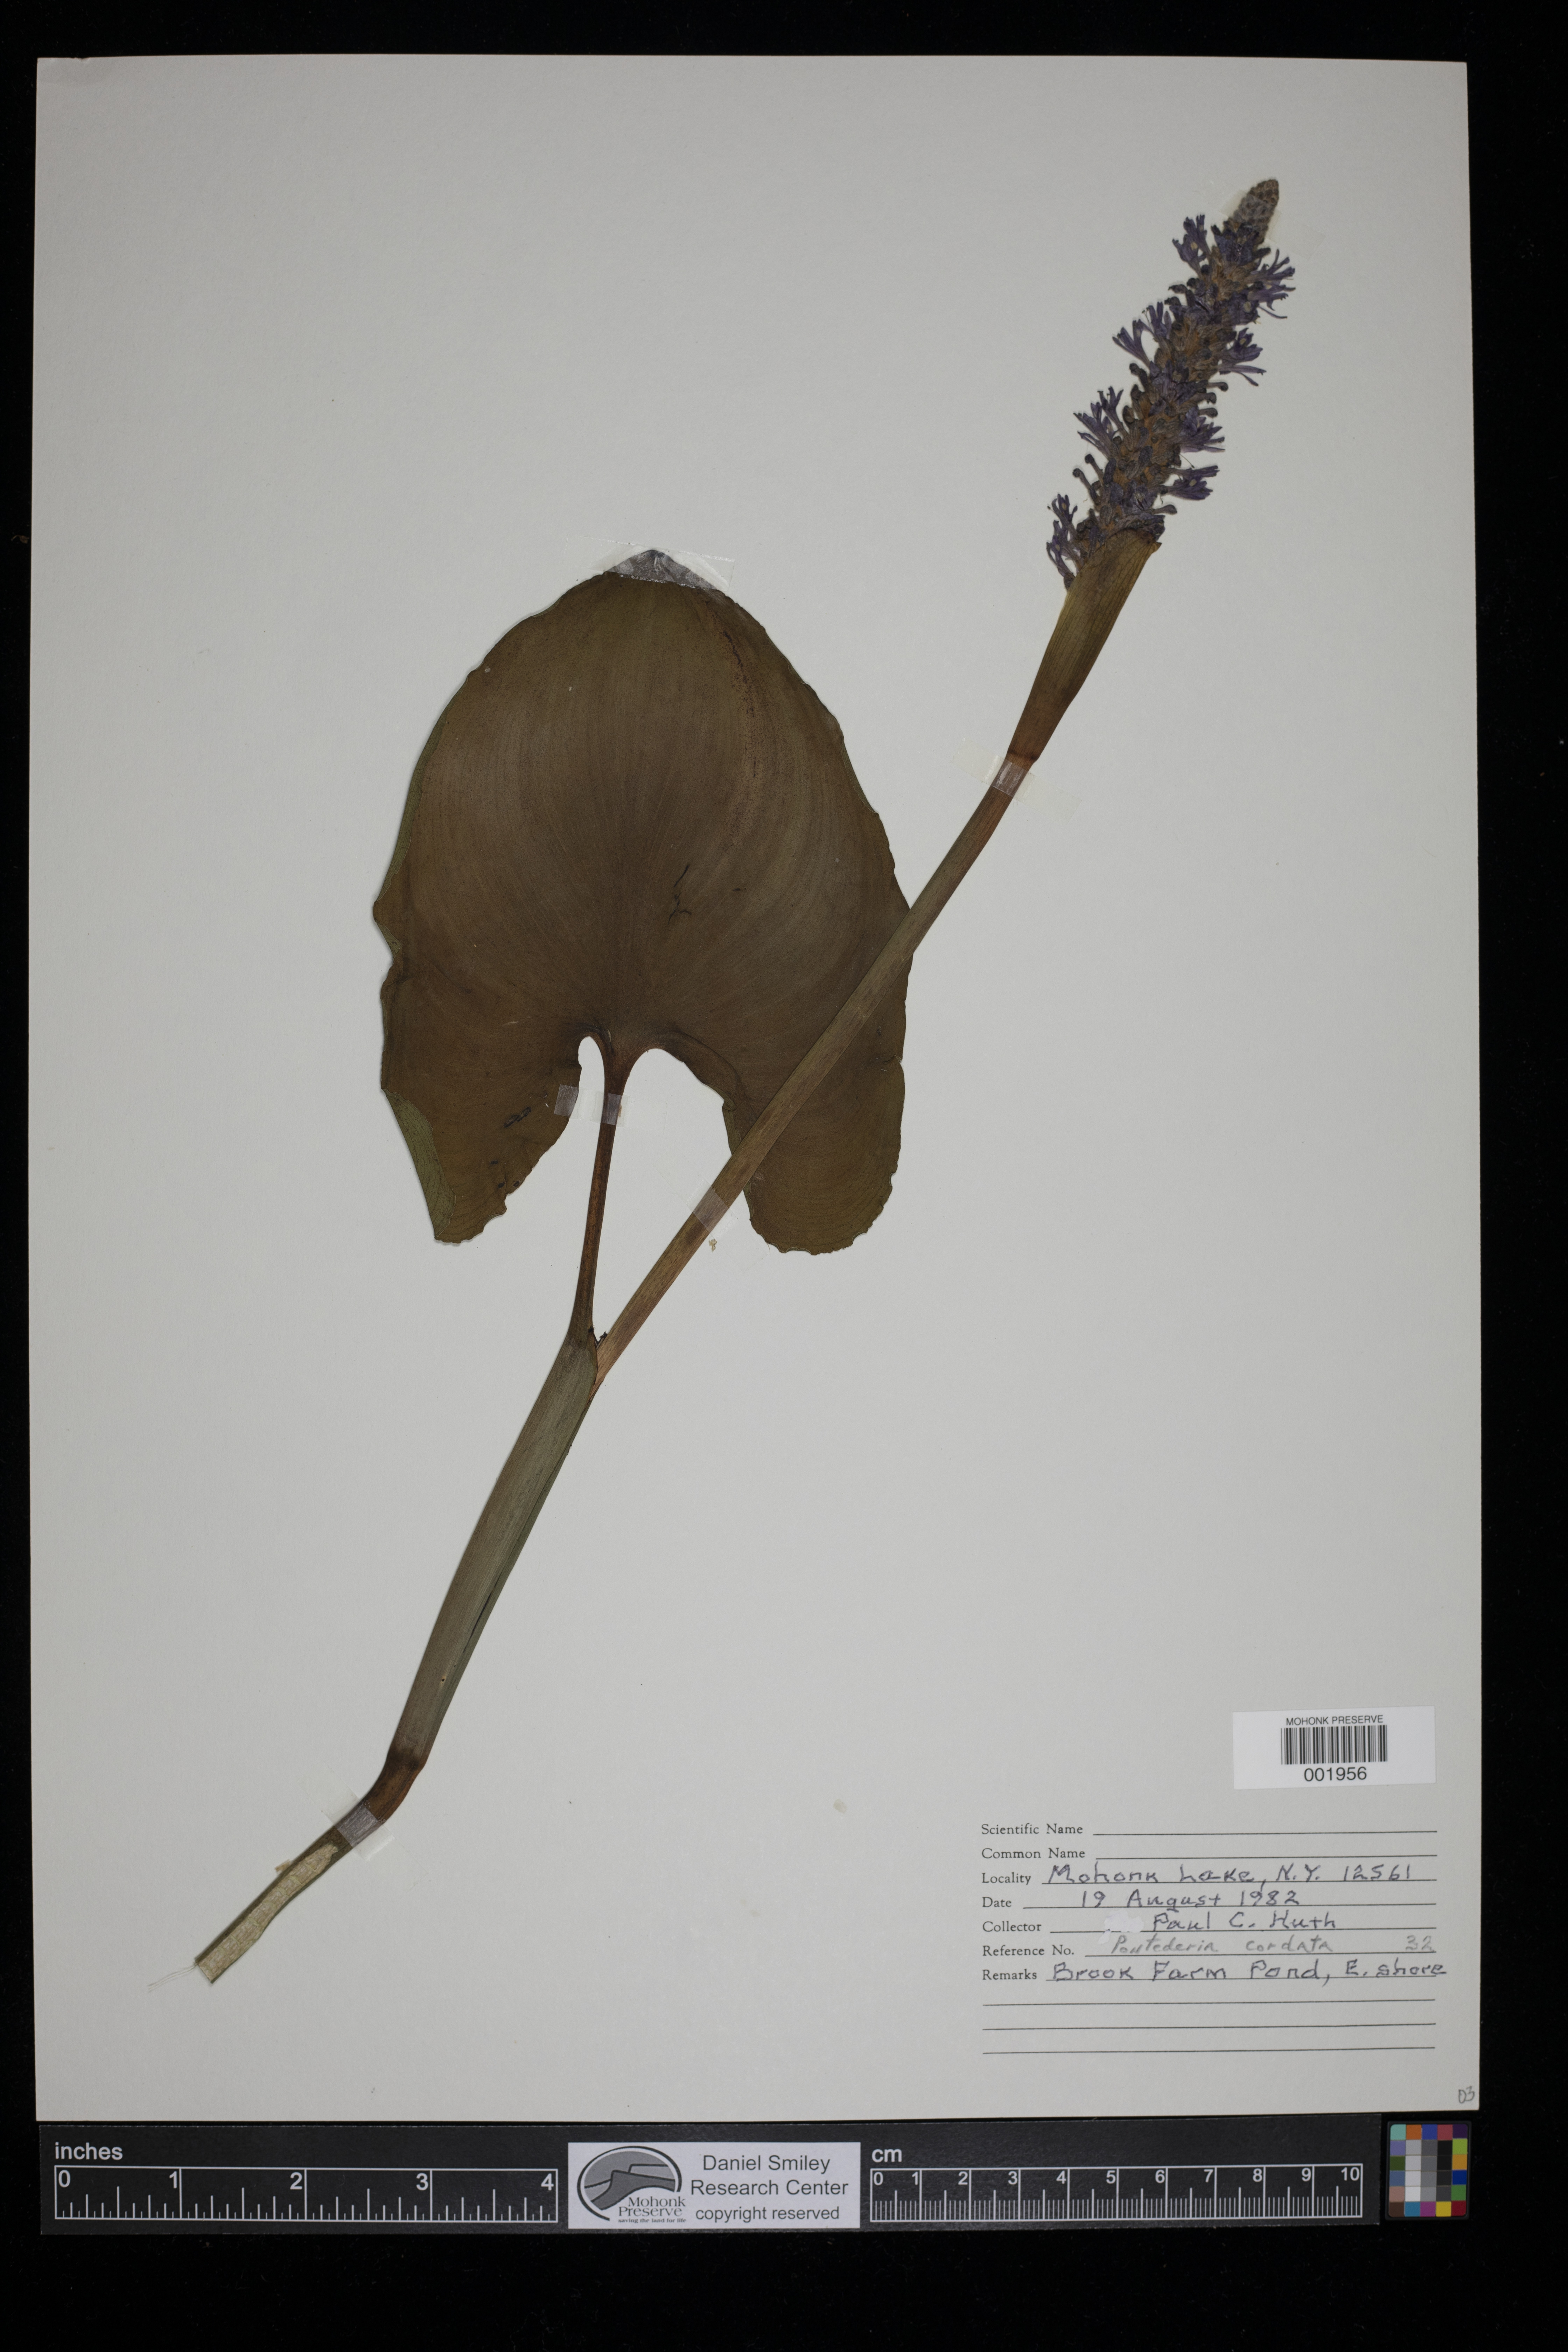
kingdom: Plantae
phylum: Tracheophyta
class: Liliopsida
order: Commelinales
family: Pontederiaceae
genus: Pontederia
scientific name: Pontederia cordata
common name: Pickerelweed
